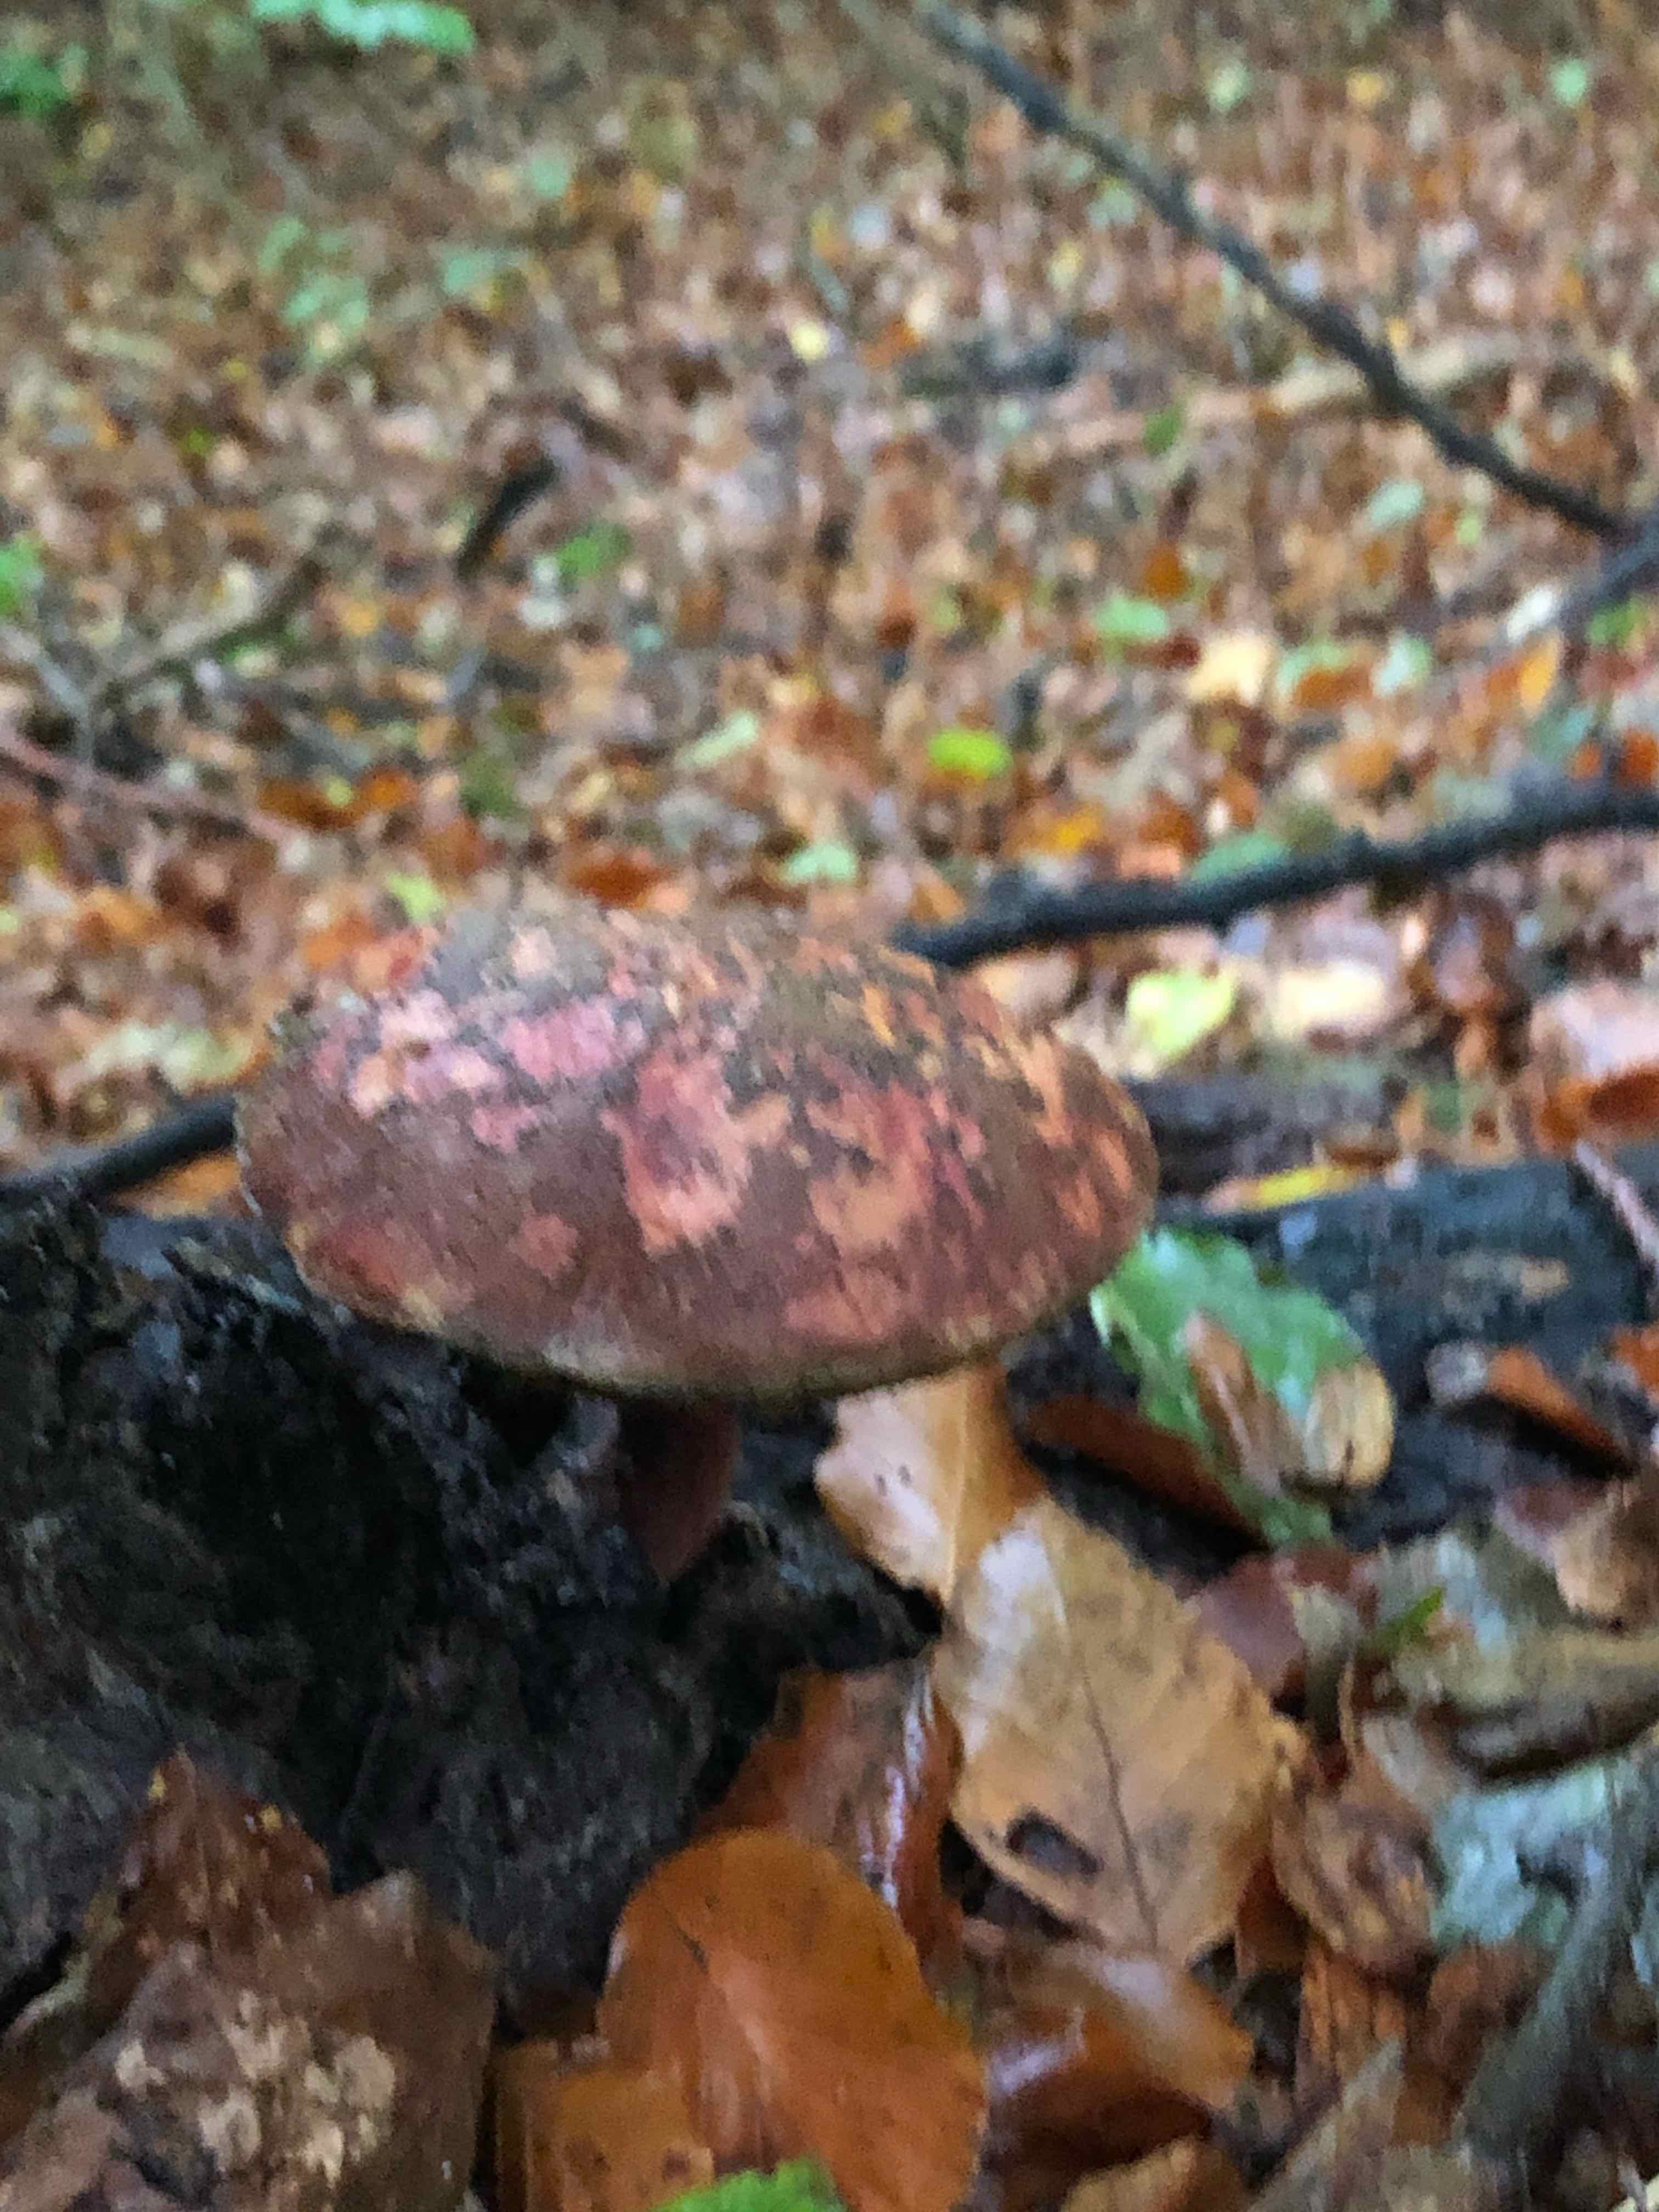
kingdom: Fungi
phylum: Basidiomycota
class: Agaricomycetes
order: Boletales
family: Boletaceae
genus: Xerocomellus
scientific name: Xerocomellus
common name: dværgrørhat
